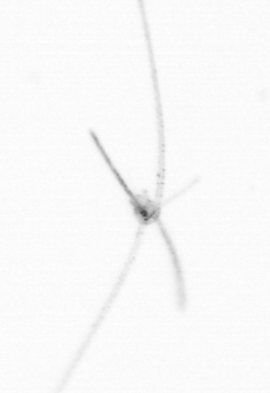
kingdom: Animalia
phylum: Echinodermata
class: Crinoidea
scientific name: Crinoidea
